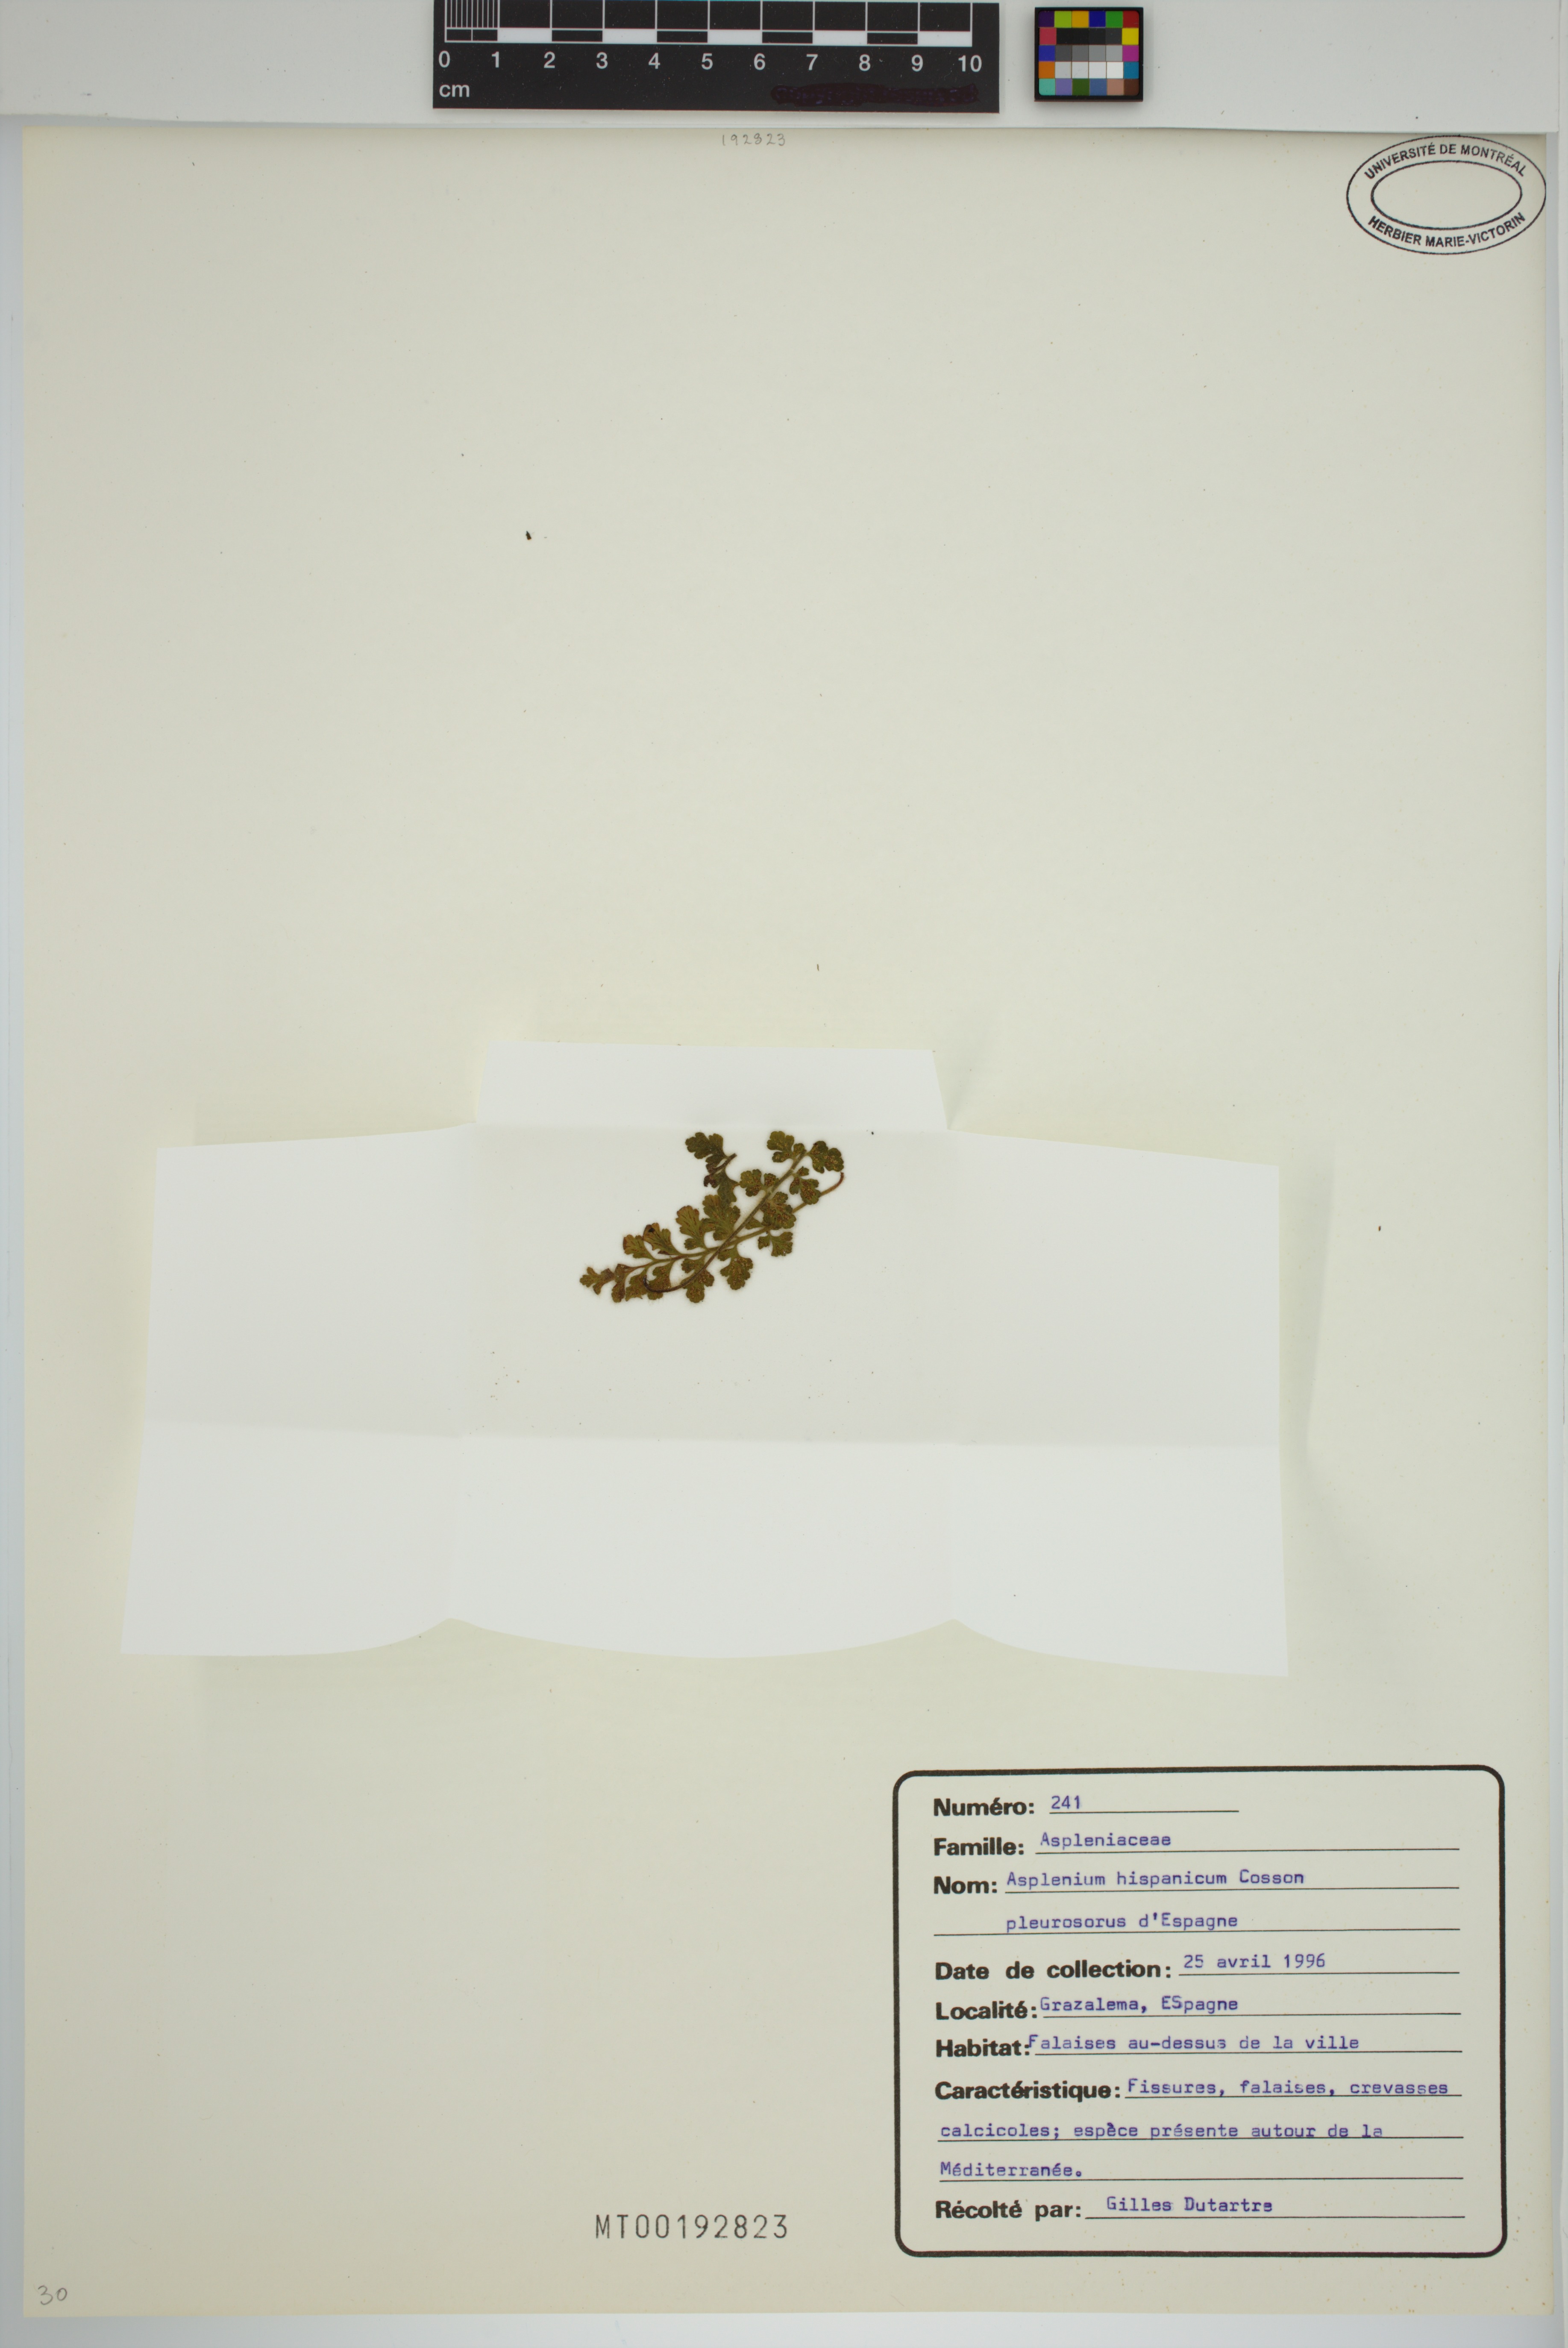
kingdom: Plantae
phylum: Tracheophyta
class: Polypodiopsida
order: Polypodiales
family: Aspleniaceae
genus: Asplenium
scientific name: Asplenium hispanicum
